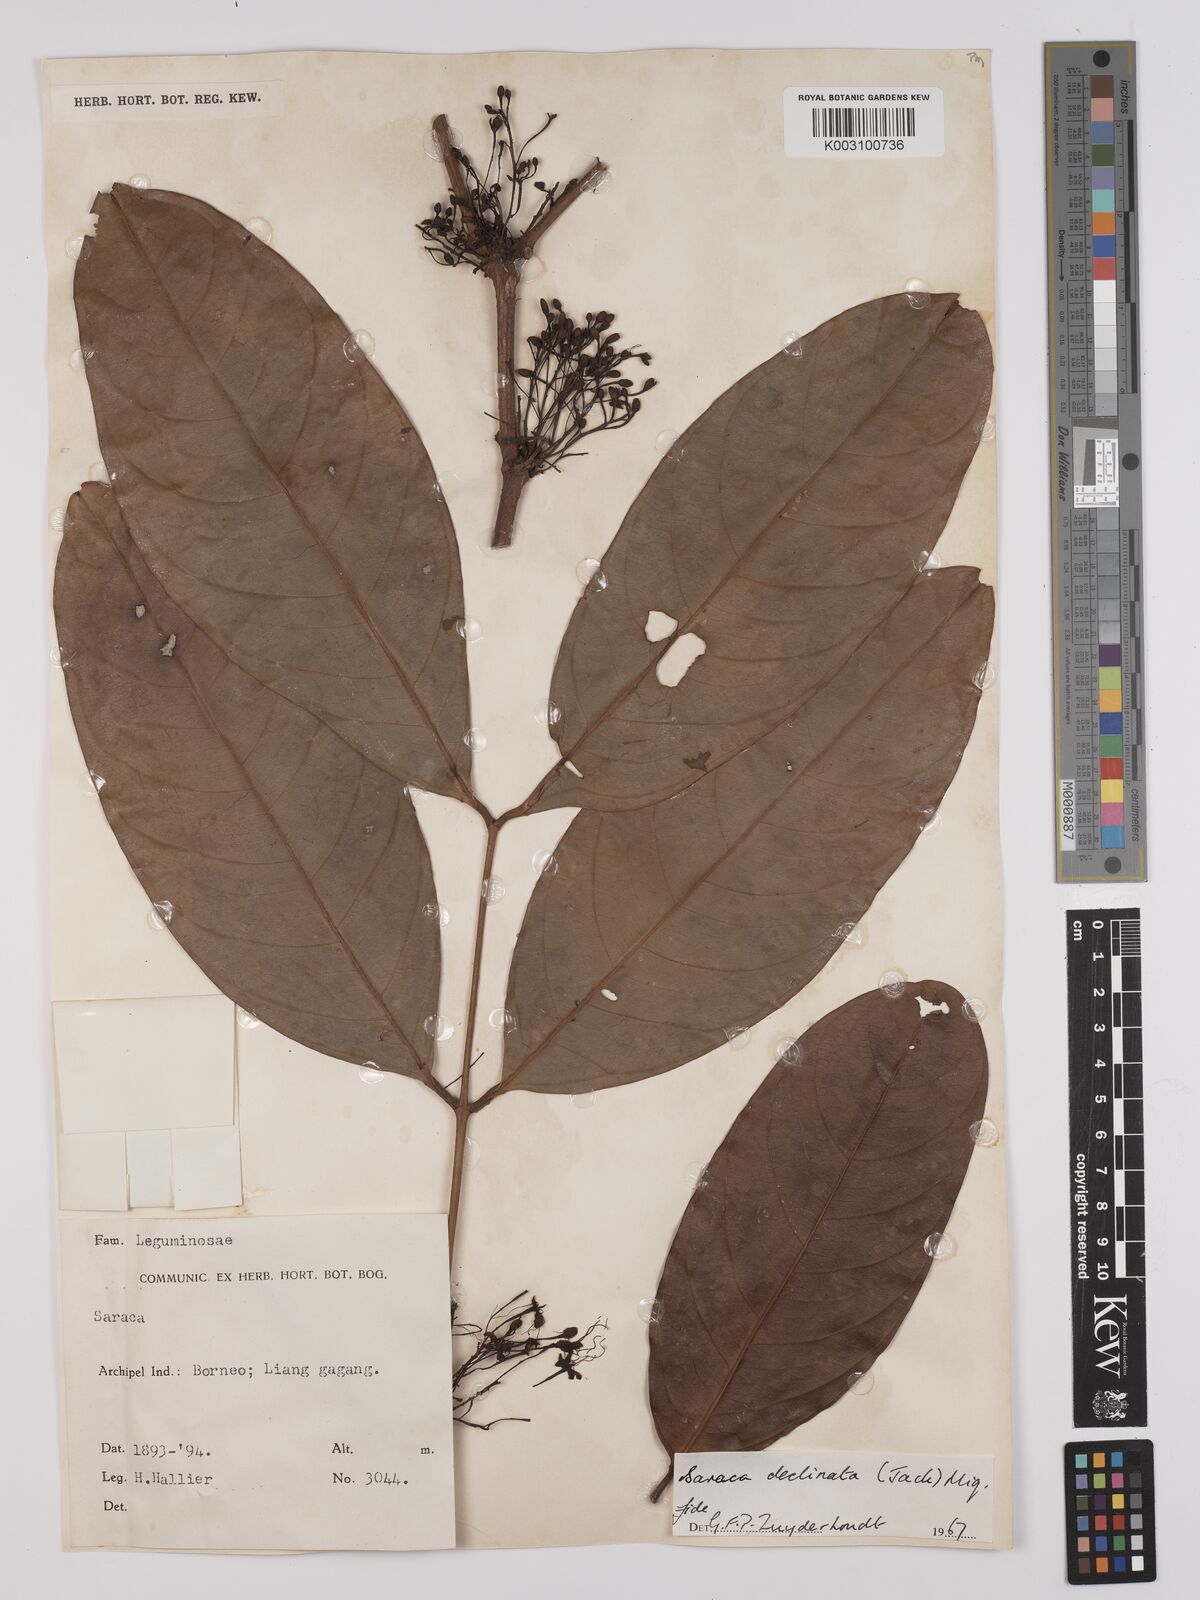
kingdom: Plantae
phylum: Tracheophyta
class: Magnoliopsida
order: Fabales
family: Fabaceae
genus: Saraca
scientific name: Saraca declinata
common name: Red saraca
